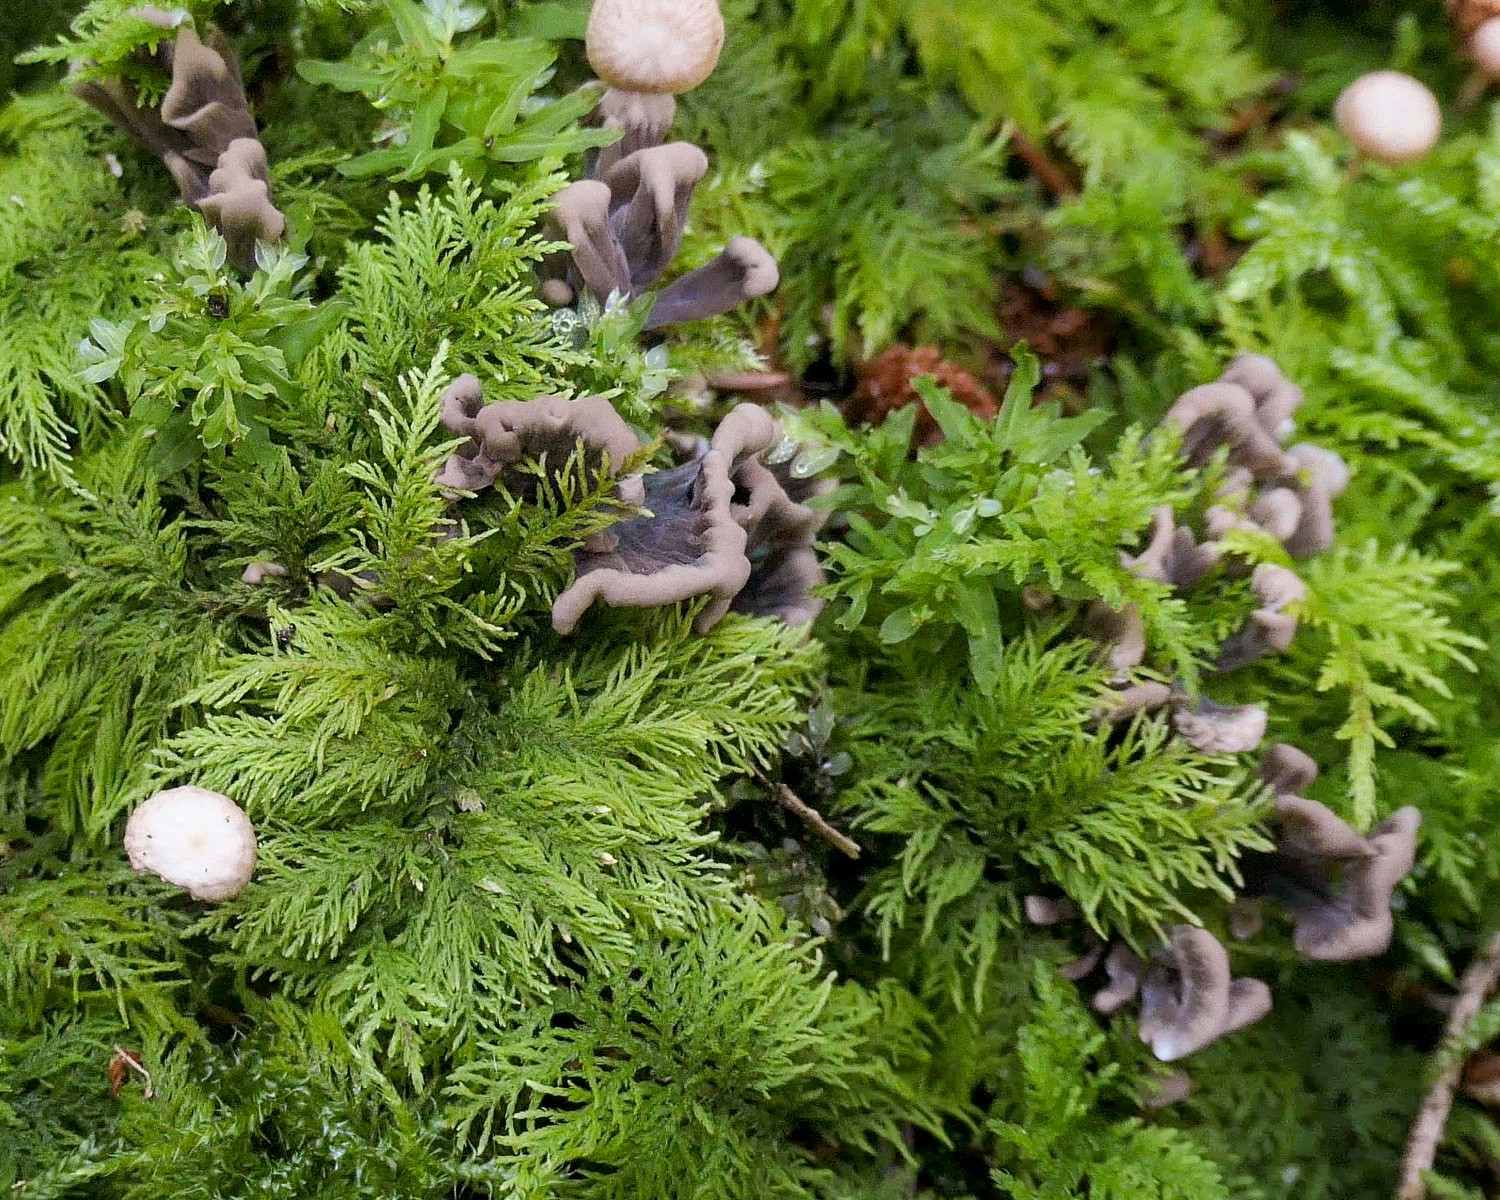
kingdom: Fungi
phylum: Basidiomycota
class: Agaricomycetes
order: Thelephorales
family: Thelephoraceae
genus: Thelephora
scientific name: Thelephora palmata
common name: grenet frynsesvamp
